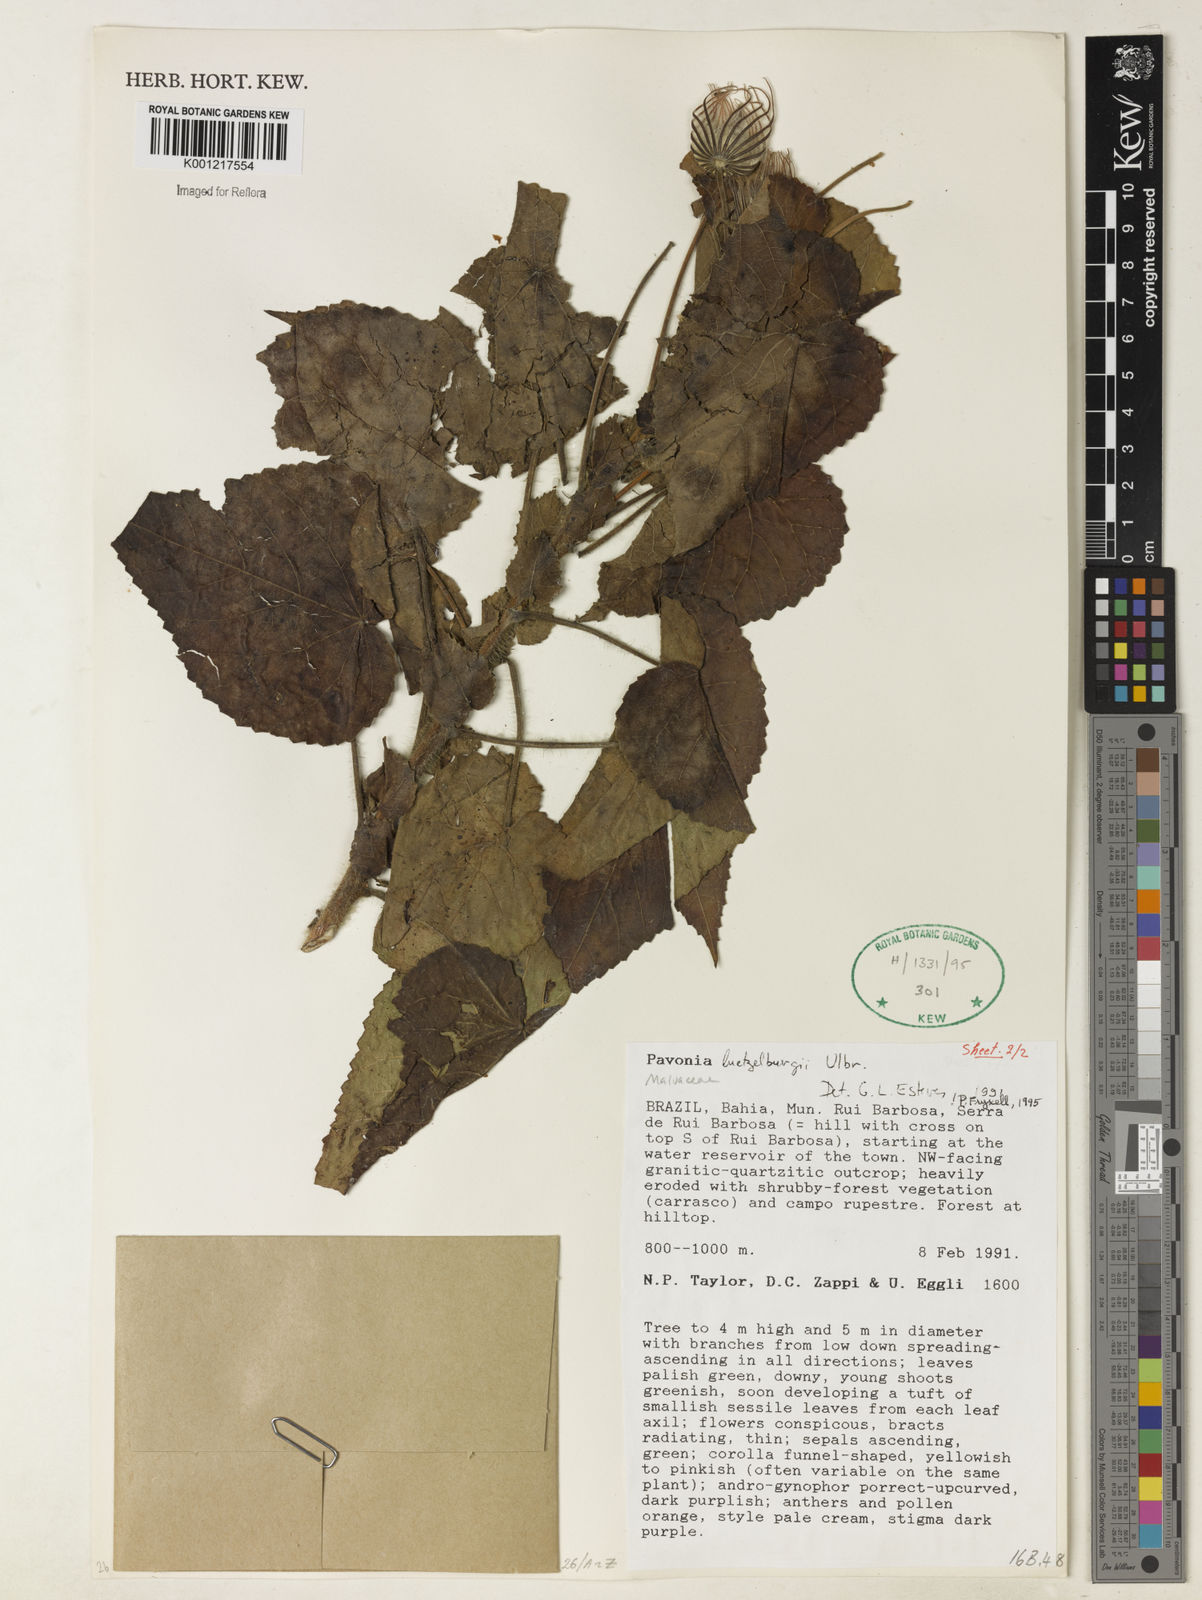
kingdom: Plantae
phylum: Tracheophyta
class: Magnoliopsida
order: Malvales
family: Malvaceae
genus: Pavonia
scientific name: Pavonia luetzelburgii
